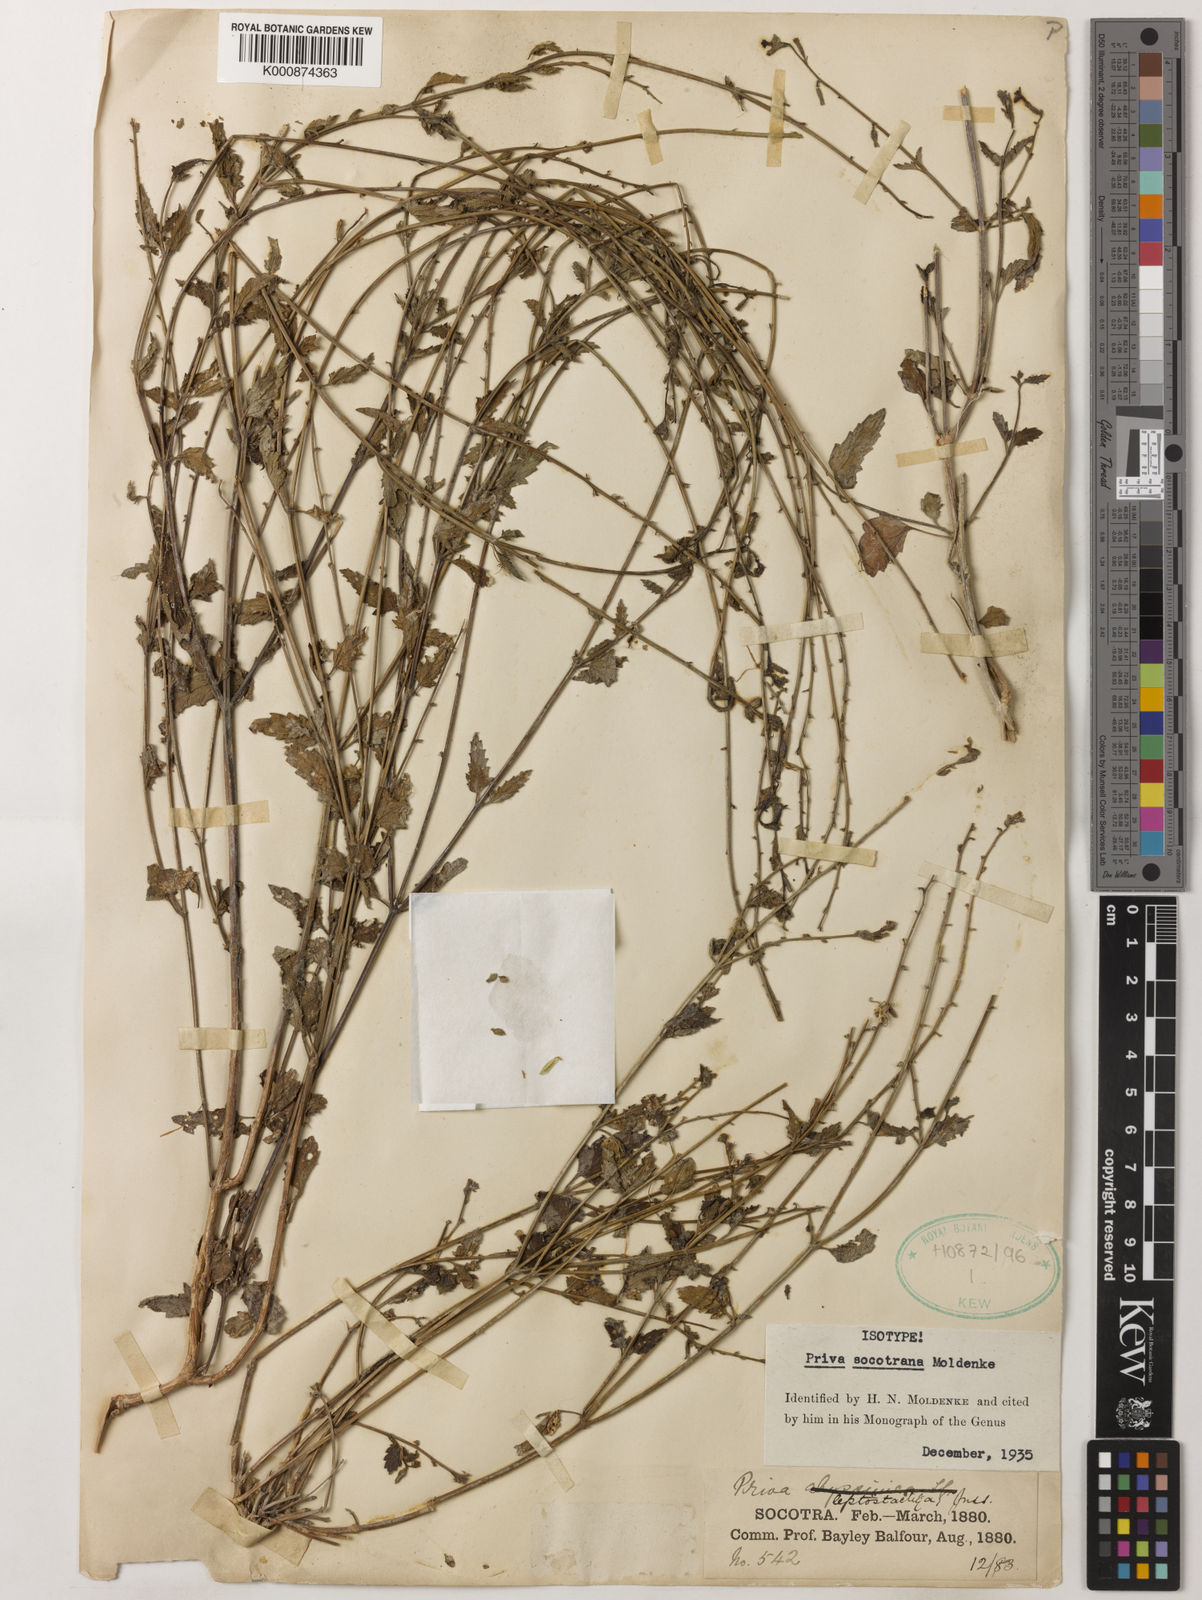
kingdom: Plantae
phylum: Tracheophyta
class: Magnoliopsida
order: Lamiales
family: Verbenaceae
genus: Priva
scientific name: Priva socotrana
